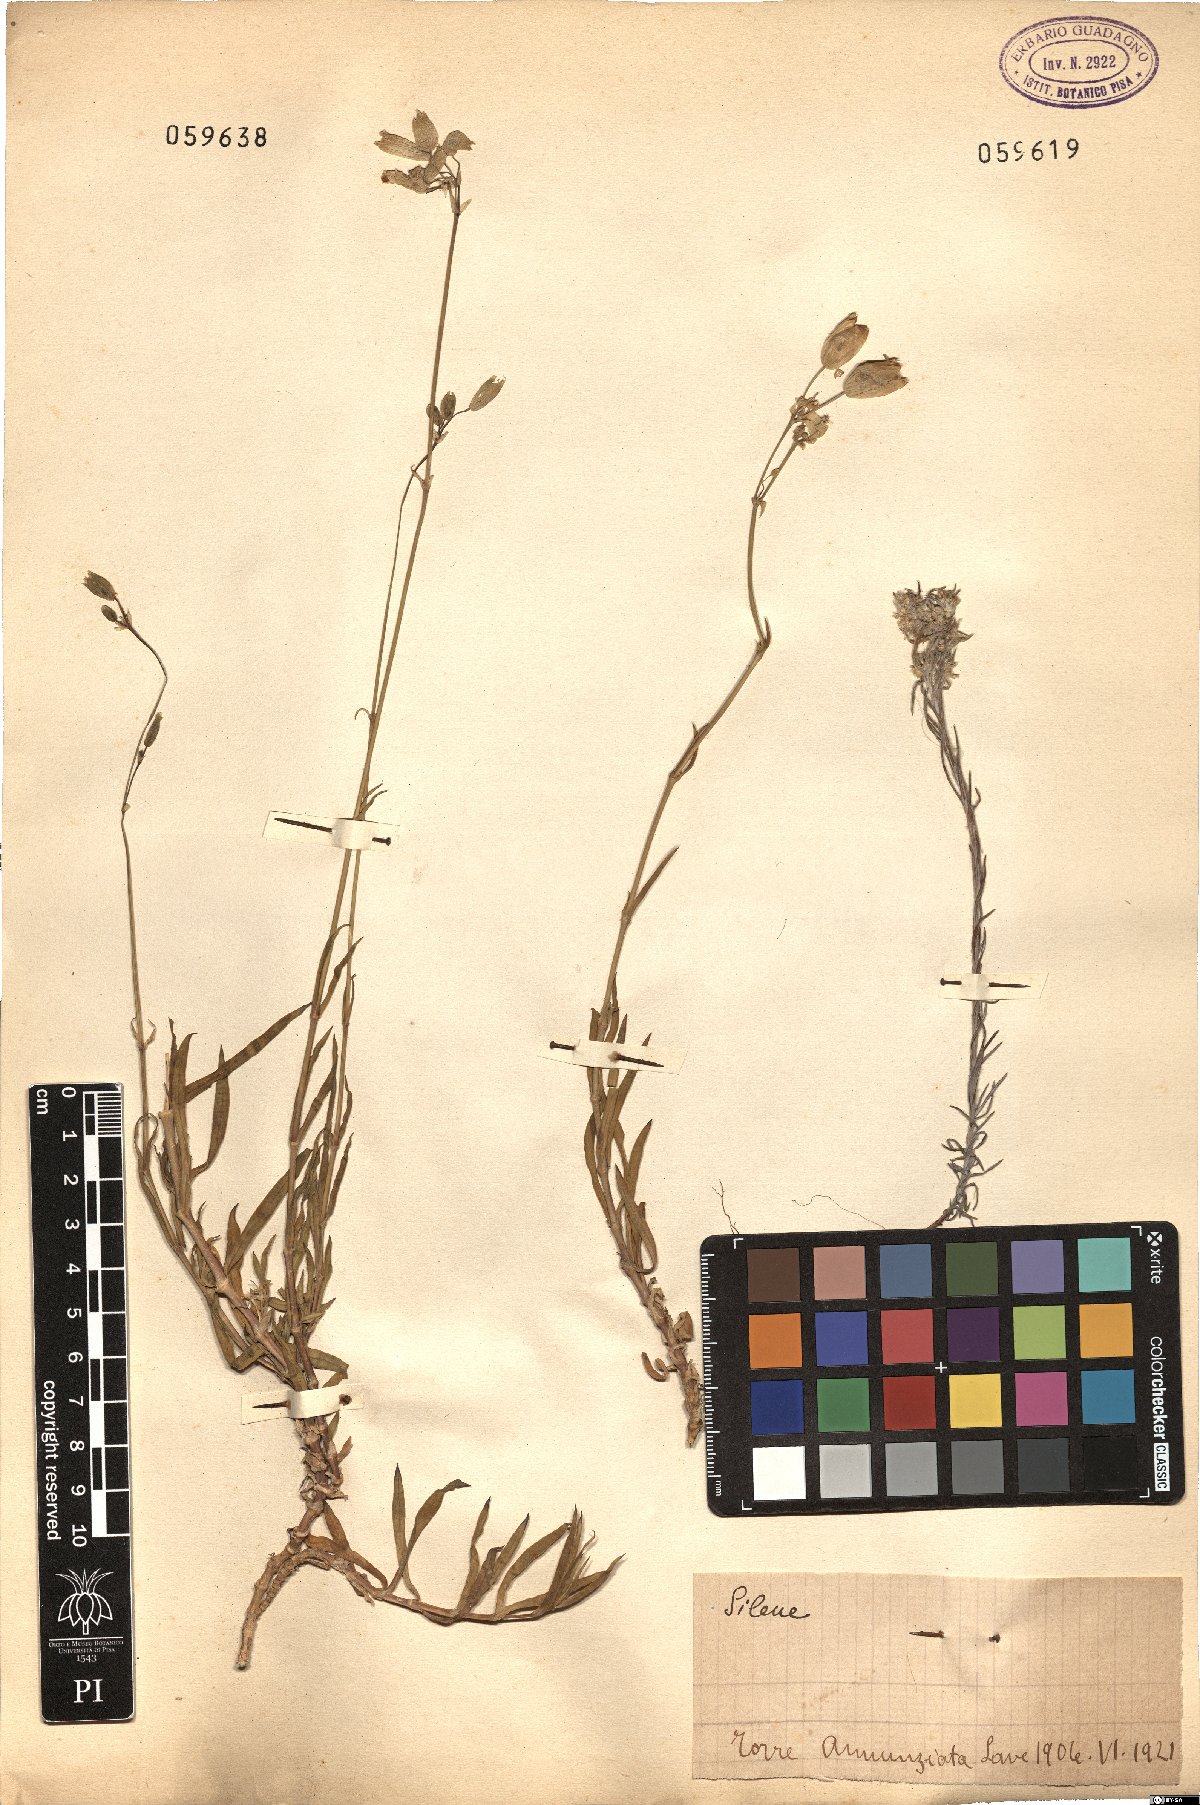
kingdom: Plantae
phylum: Tracheophyta
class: Magnoliopsida
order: Caryophyllales
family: Caryophyllaceae
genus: Silene
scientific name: Silene
